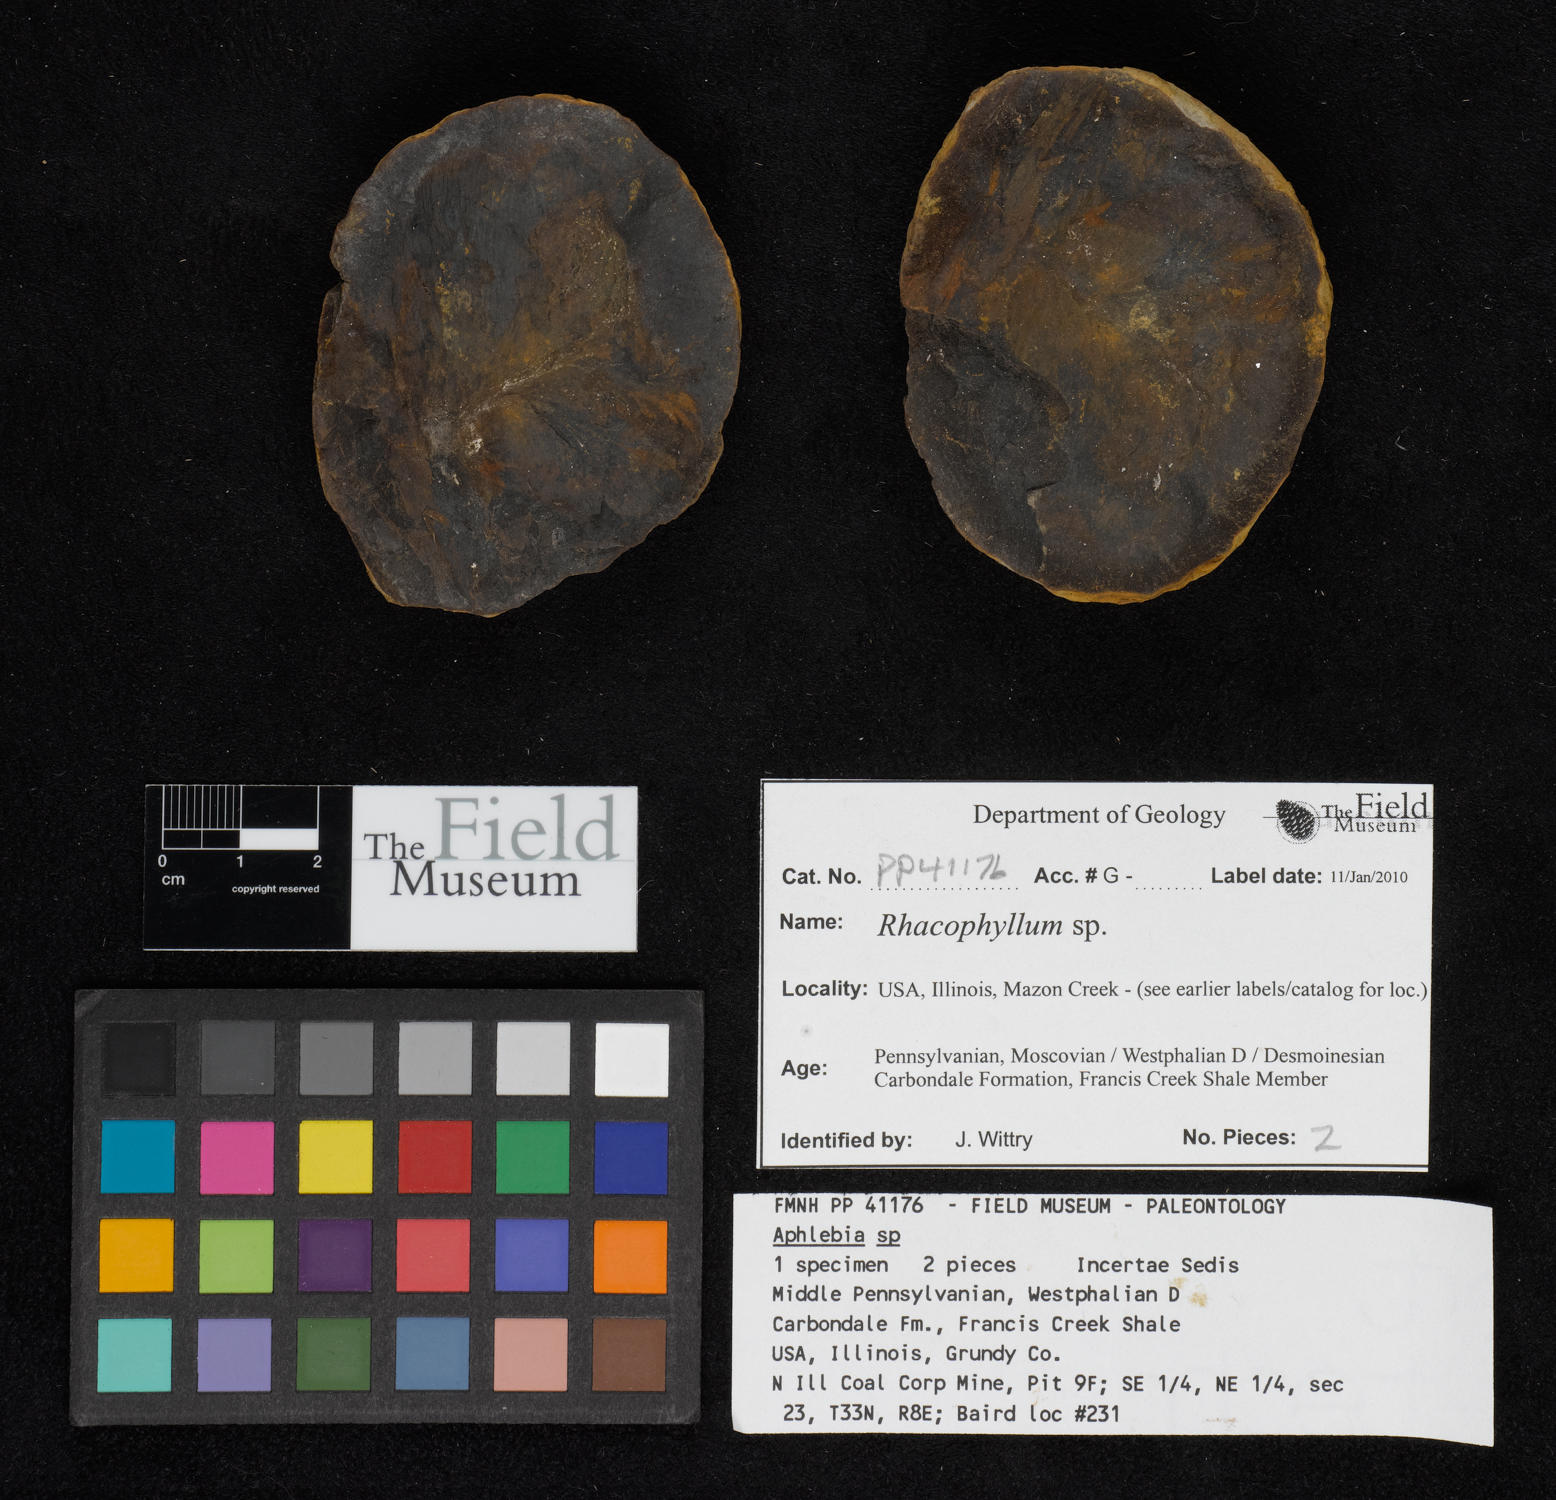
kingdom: Plantae
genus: Rhacophyllum
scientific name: Rhacophyllum
